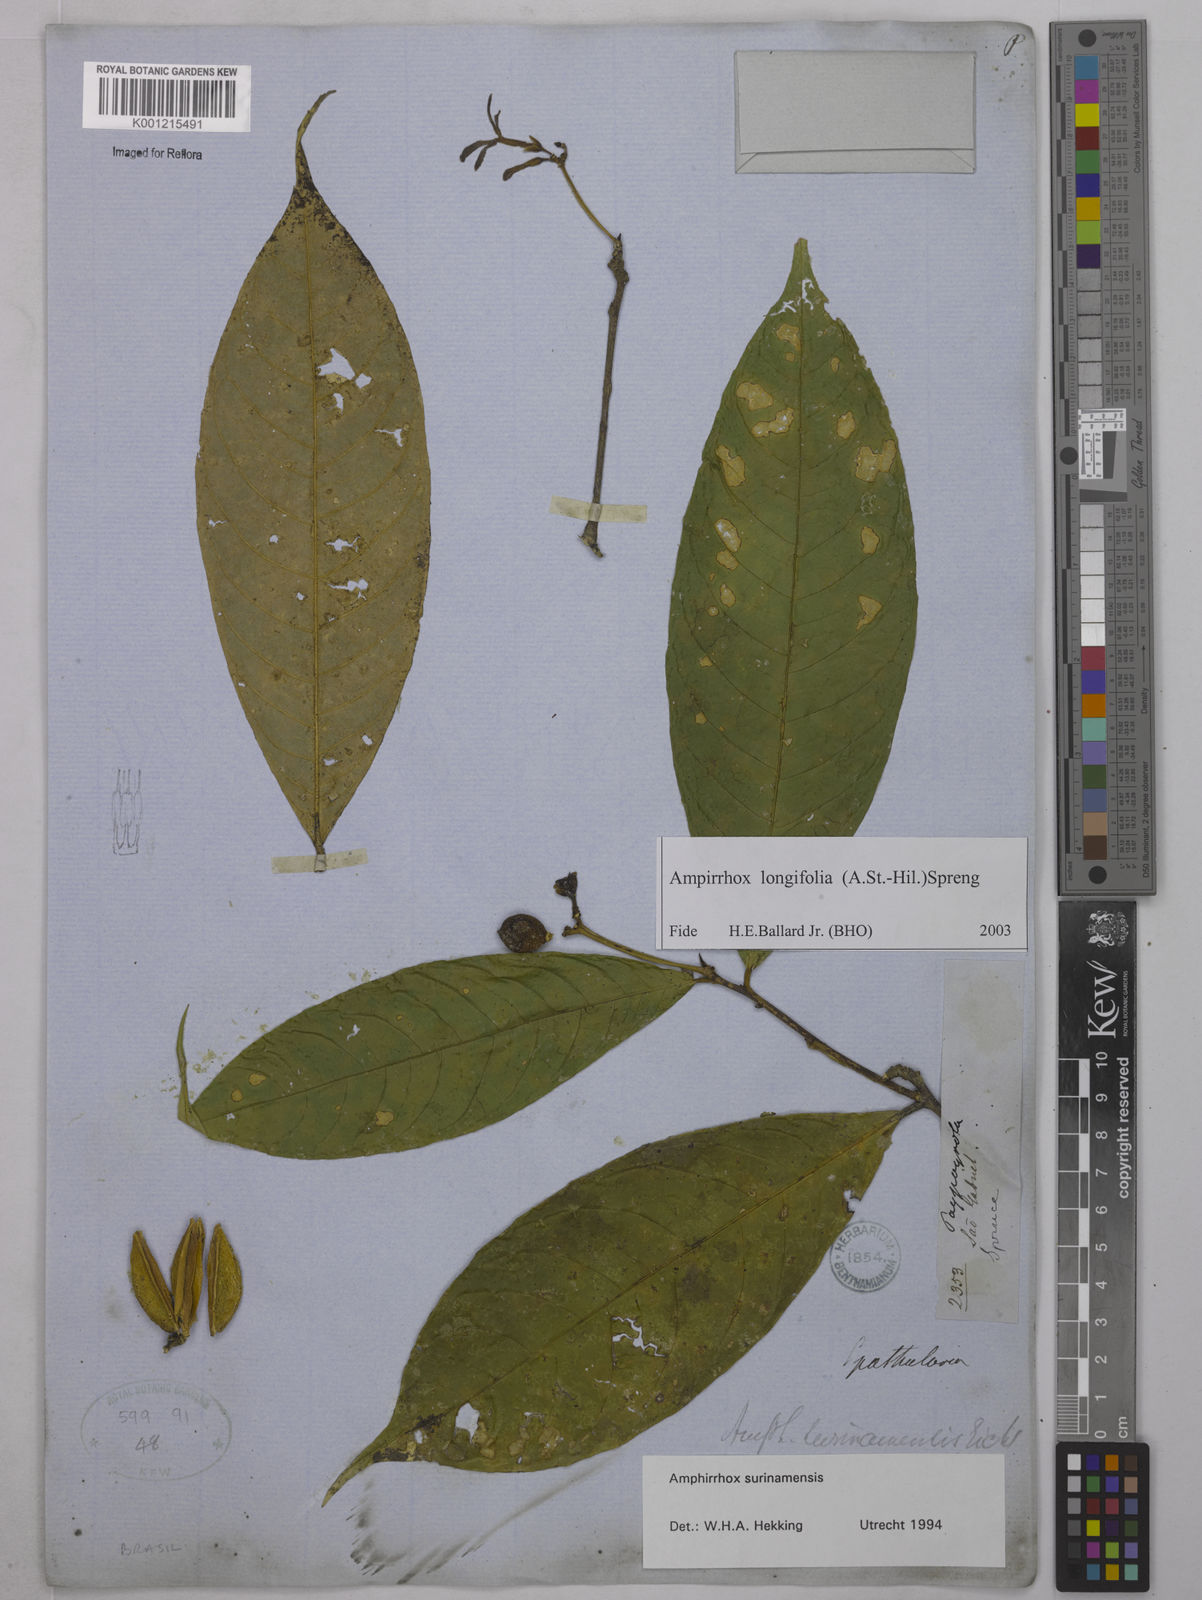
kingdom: Plantae
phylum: Tracheophyta
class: Magnoliopsida
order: Malpighiales
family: Violaceae
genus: Amphirrhox
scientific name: Amphirrhox longifolia
